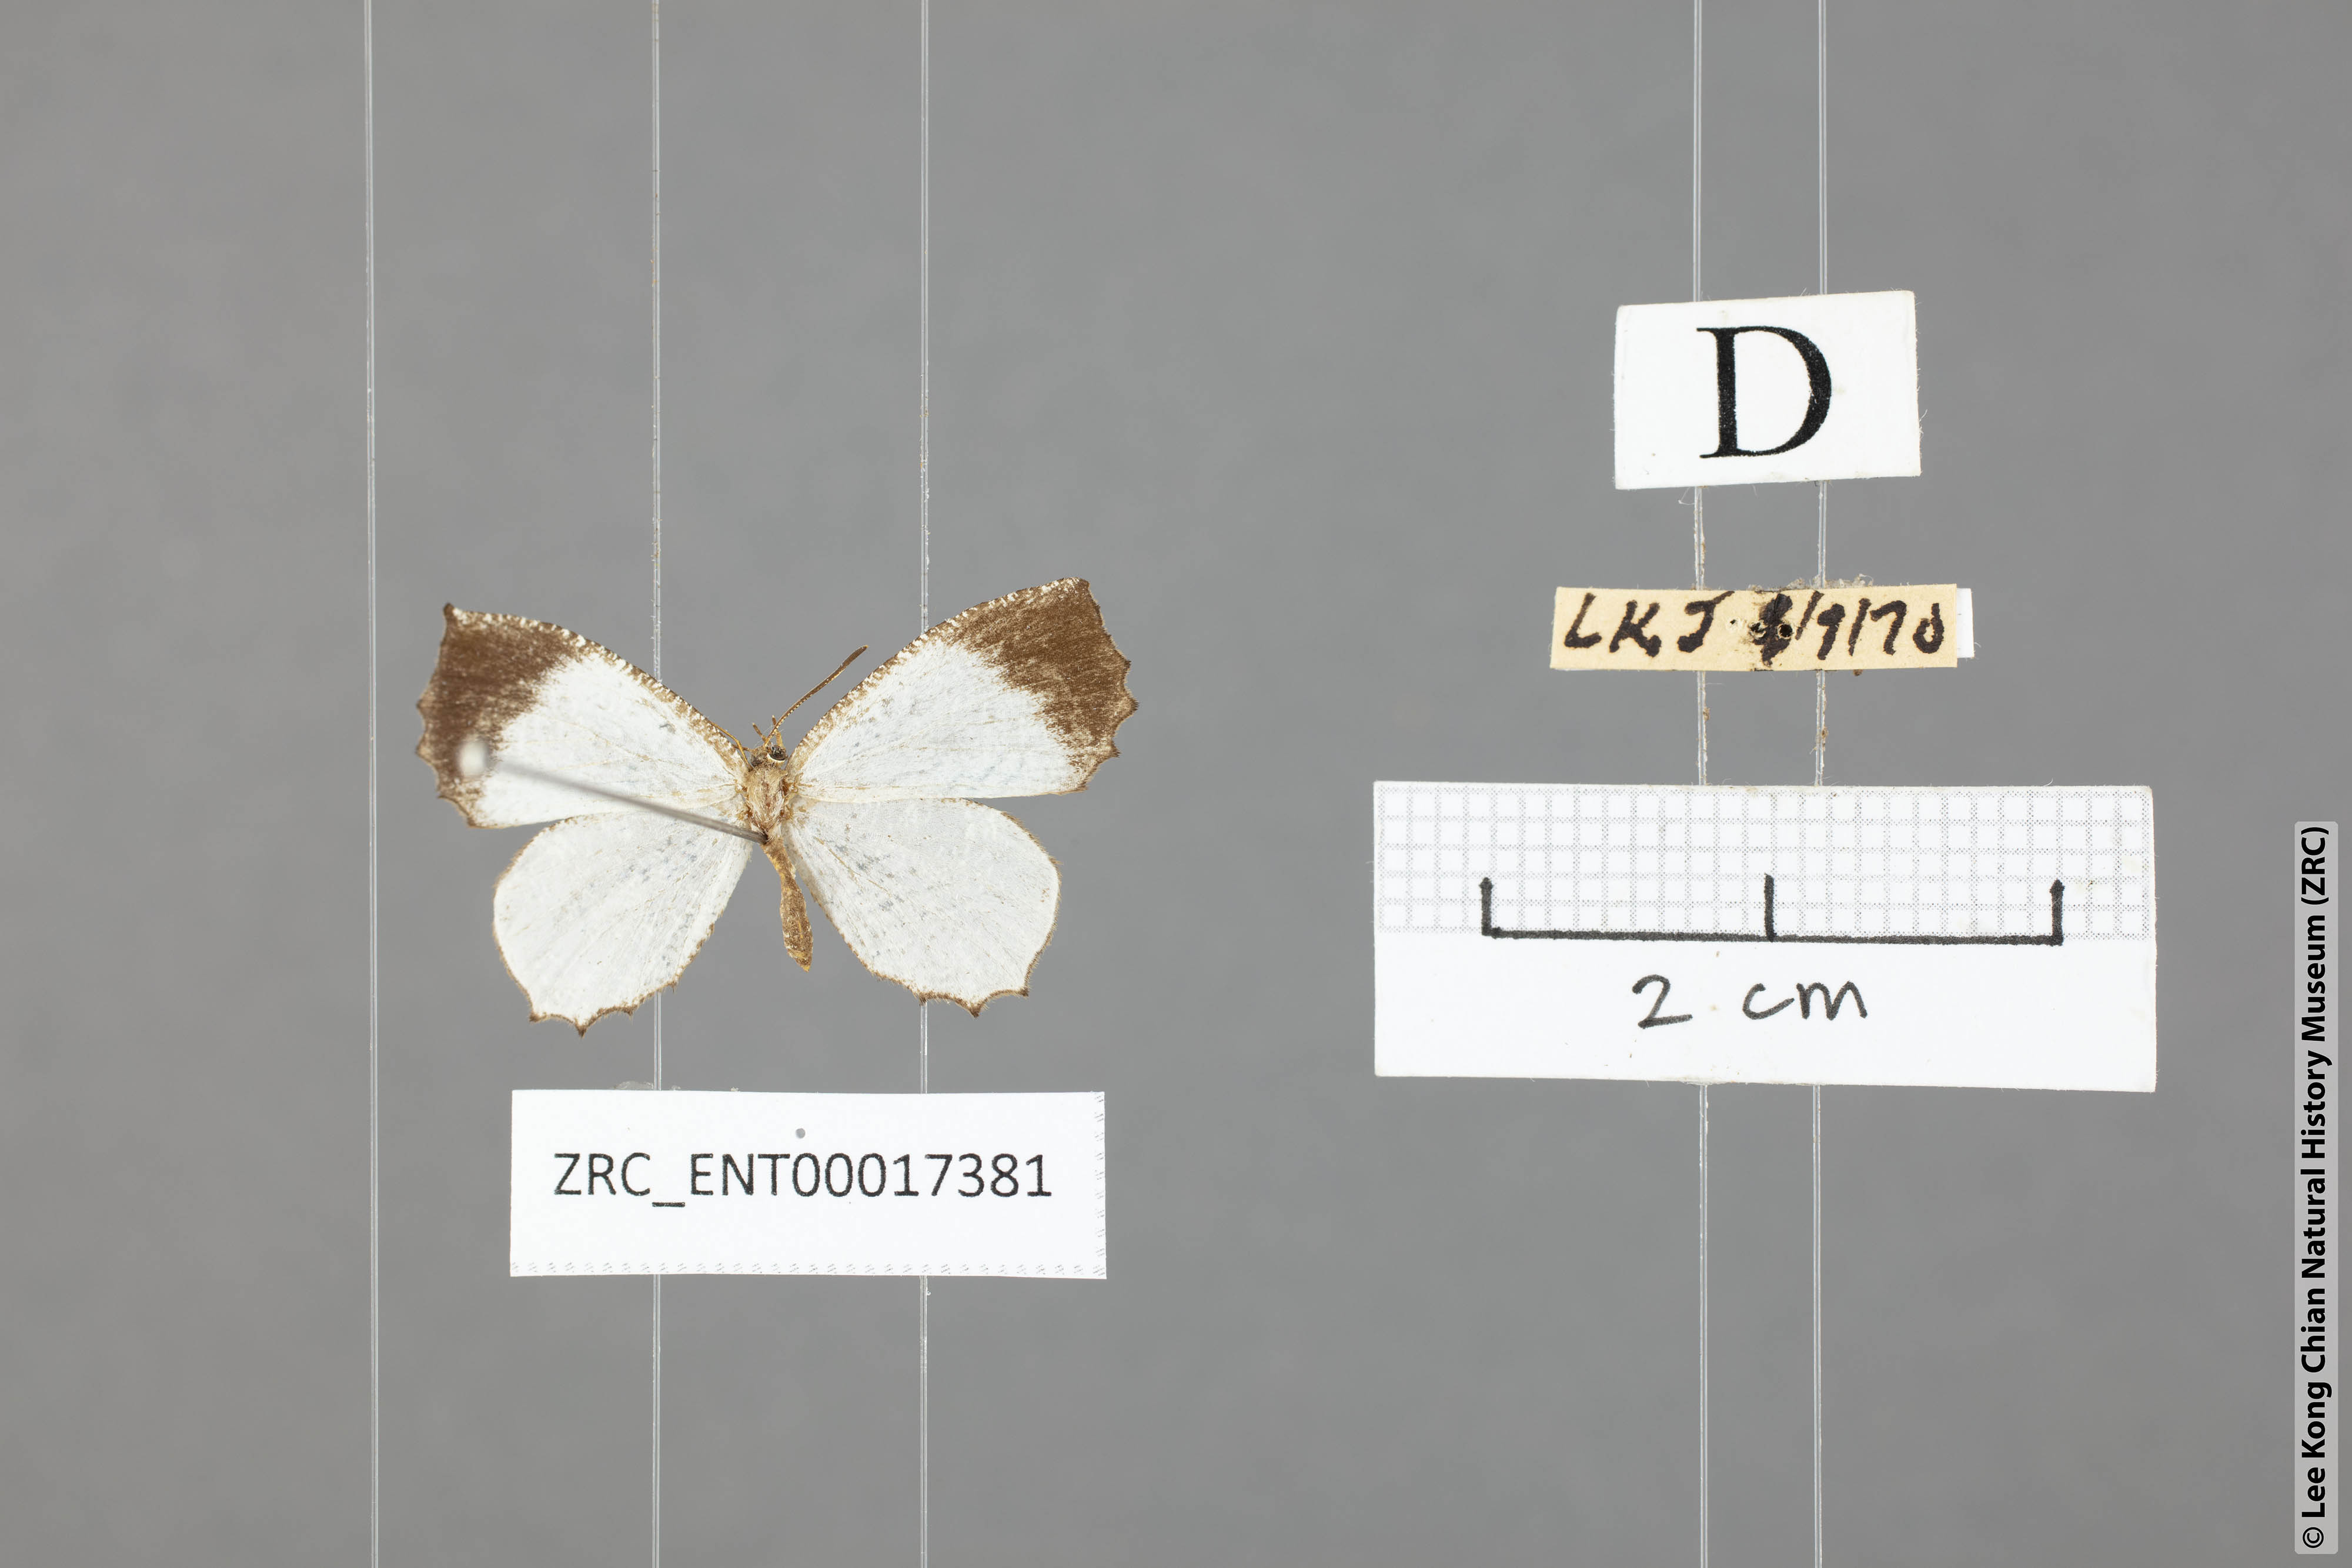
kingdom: Animalia
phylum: Arthropoda
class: Insecta
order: Lepidoptera
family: Lycaenidae
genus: Logania
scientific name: Logania malayica
